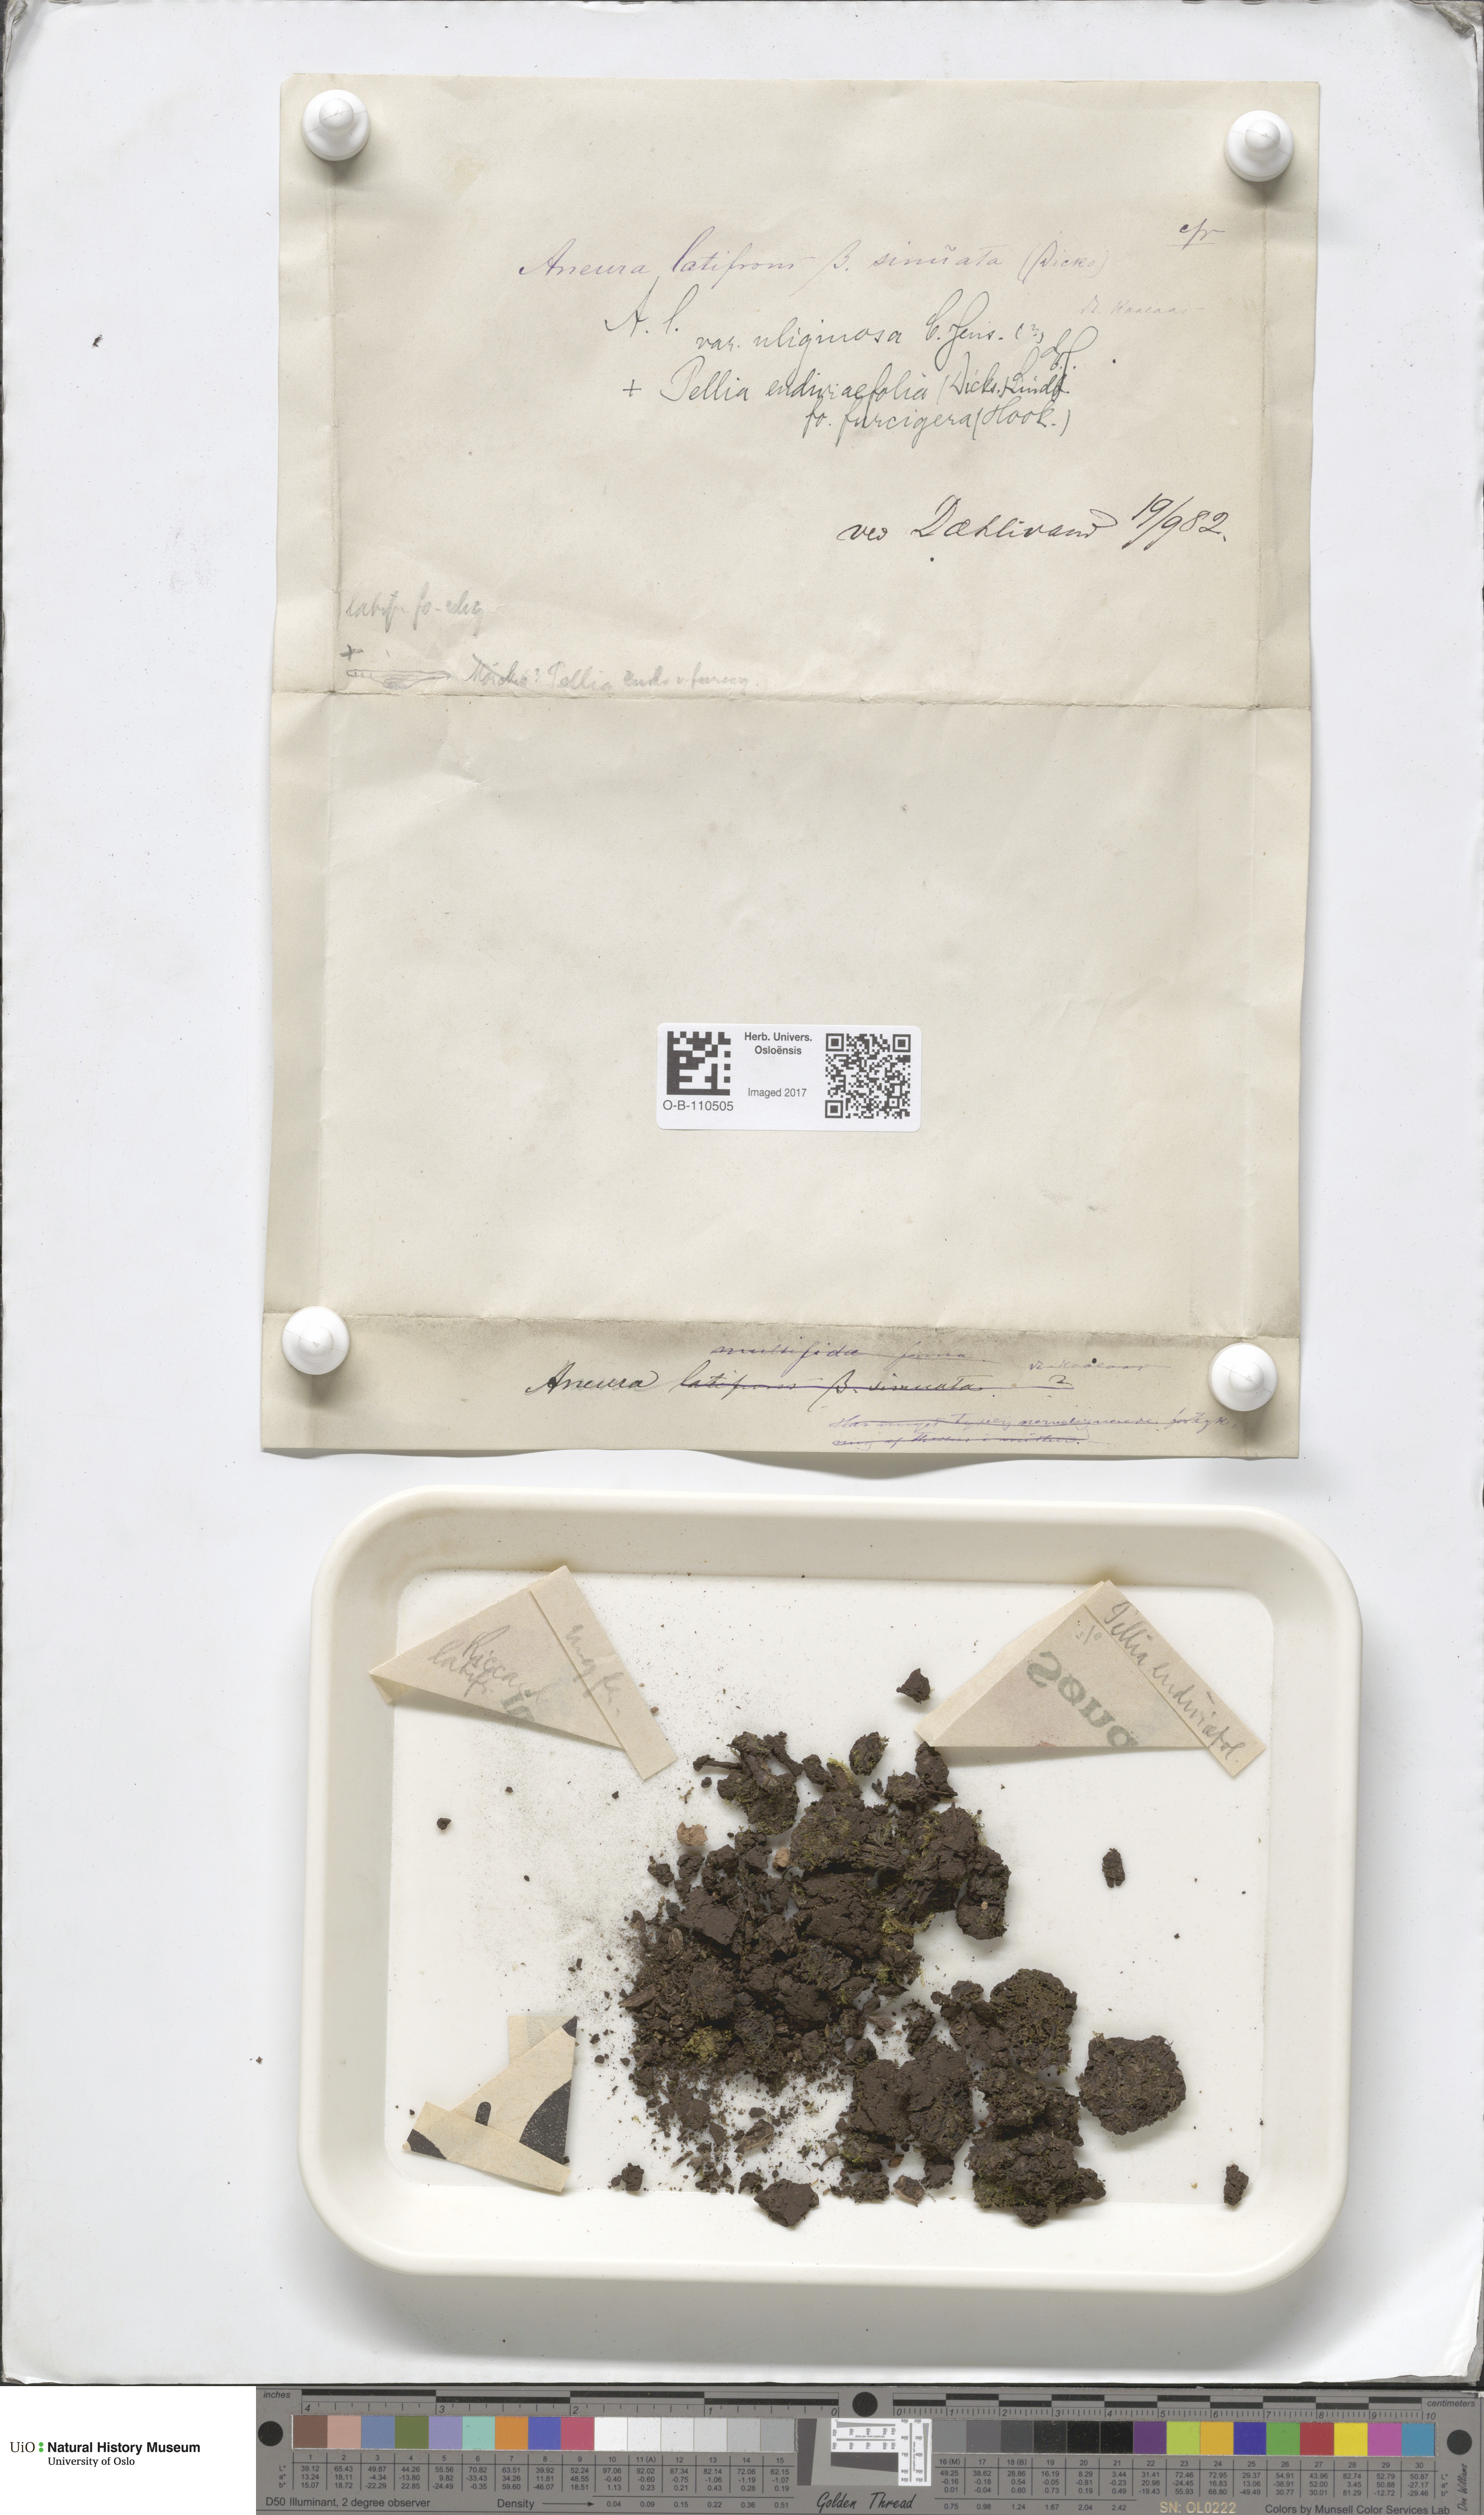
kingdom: Plantae
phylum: Marchantiophyta
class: Jungermanniopsida
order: Metzgeriales
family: Aneuraceae
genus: Riccardia
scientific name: Riccardia latifrons
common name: Bog germanderwort
